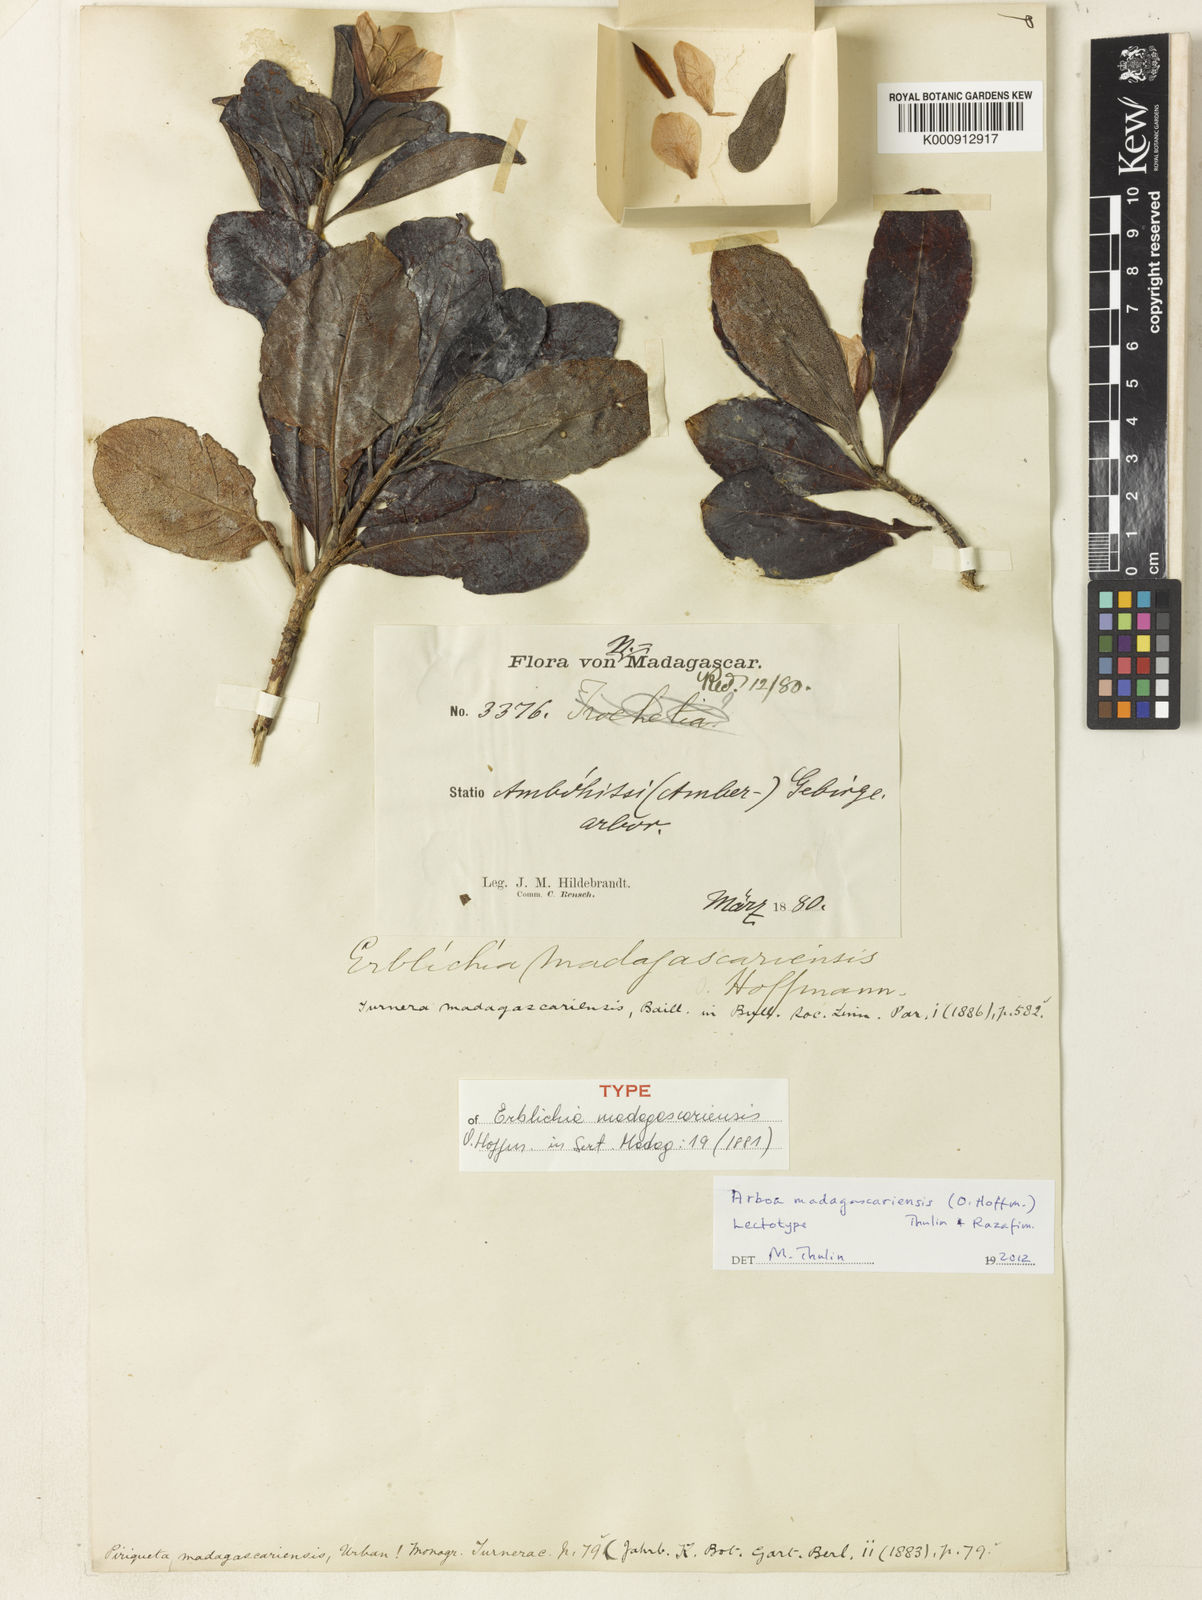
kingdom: Plantae
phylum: Tracheophyta
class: Magnoliopsida
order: Malpighiales
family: Turneraceae
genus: Arboa
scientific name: Arboa madagascariensis
